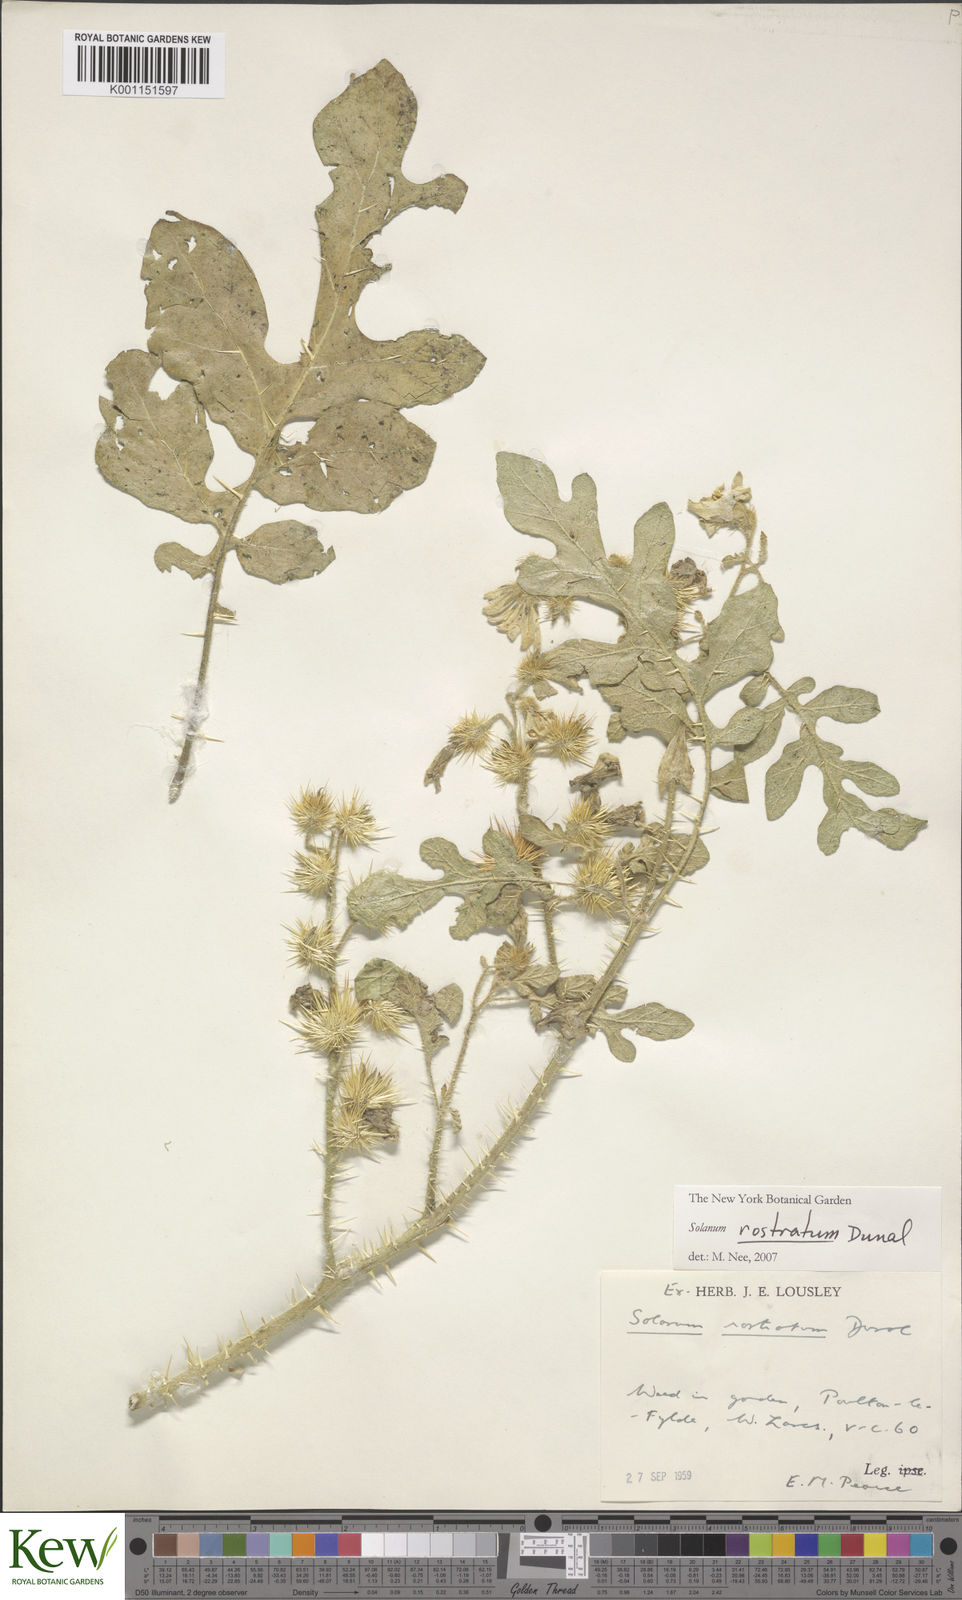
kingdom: Plantae
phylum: Tracheophyta
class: Magnoliopsida
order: Solanales
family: Solanaceae
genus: Solanum
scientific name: Solanum angustifolium
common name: Buffalobur nightshade
